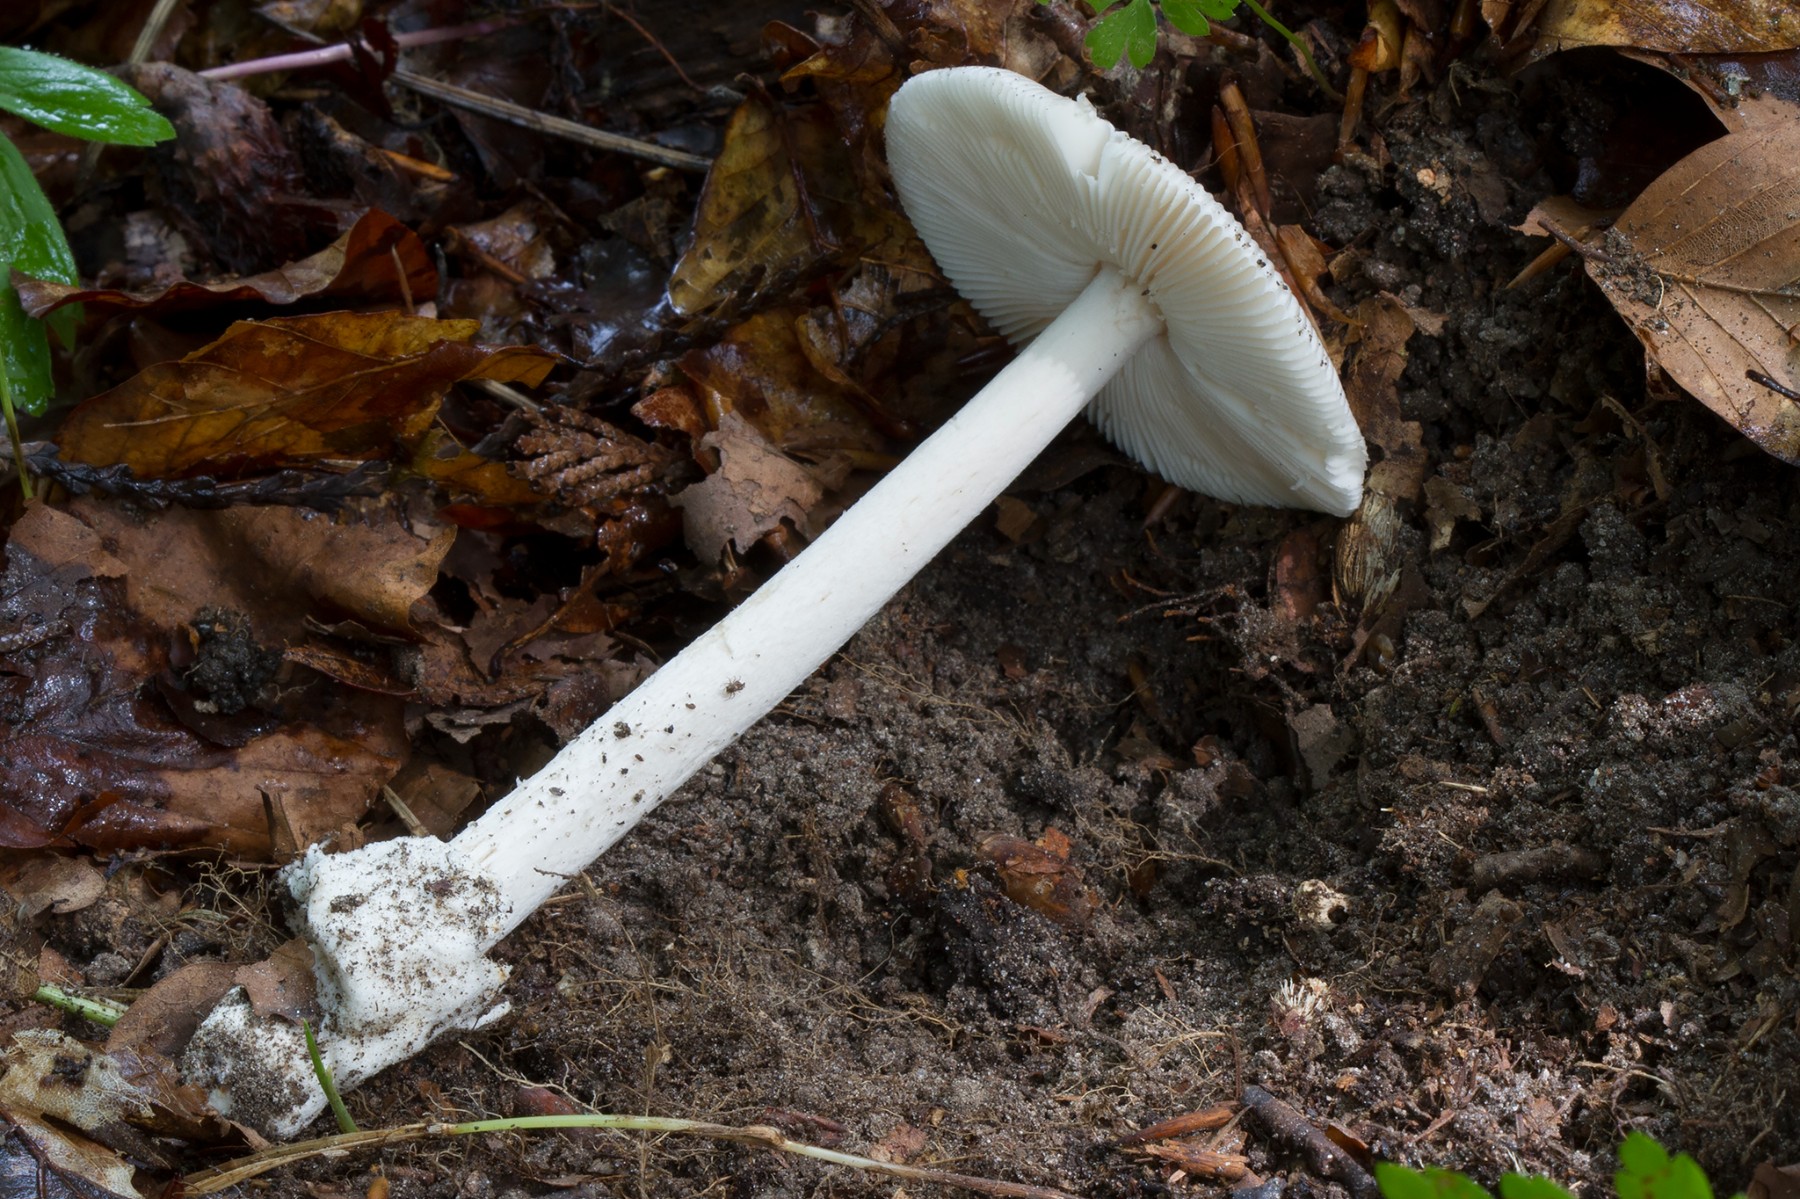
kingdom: Fungi
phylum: Basidiomycota
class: Agaricomycetes
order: Agaricales
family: Amanitaceae
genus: Amanita
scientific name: Amanita coryli
